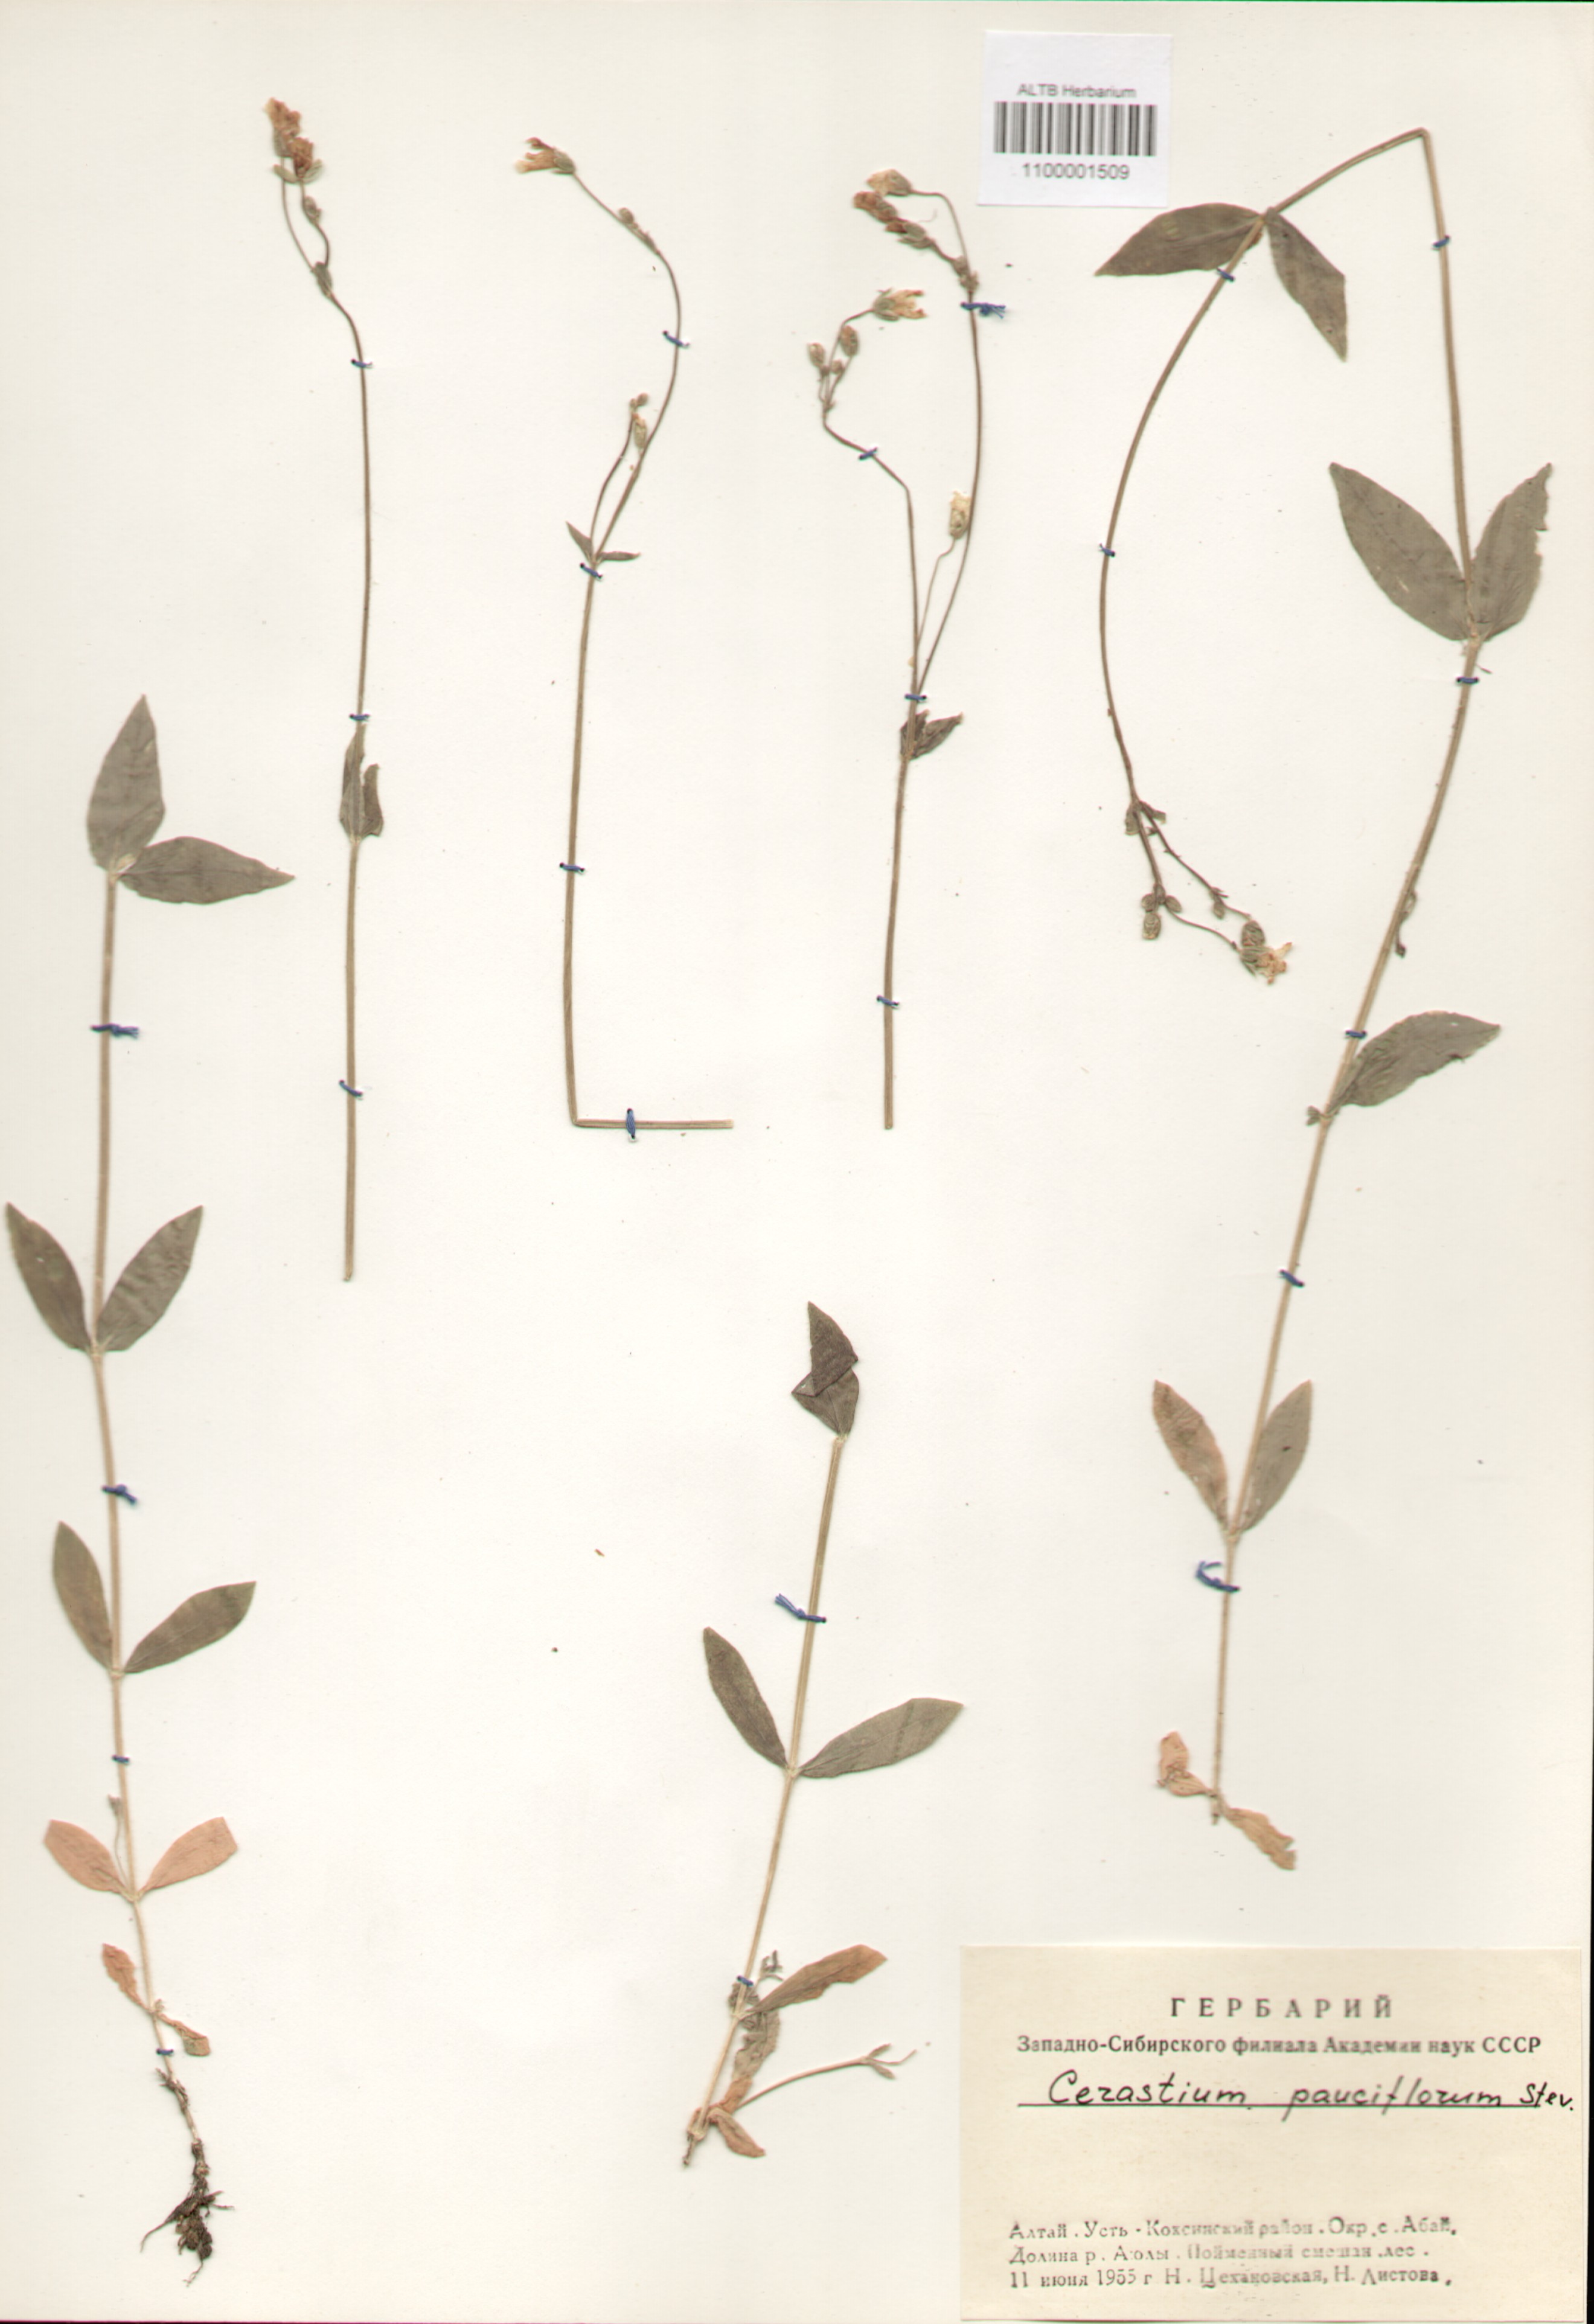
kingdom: Plantae
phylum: Tracheophyta
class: Magnoliopsida
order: Caryophyllales
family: Caryophyllaceae
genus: Cerastium
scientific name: Cerastium pauciflorum
